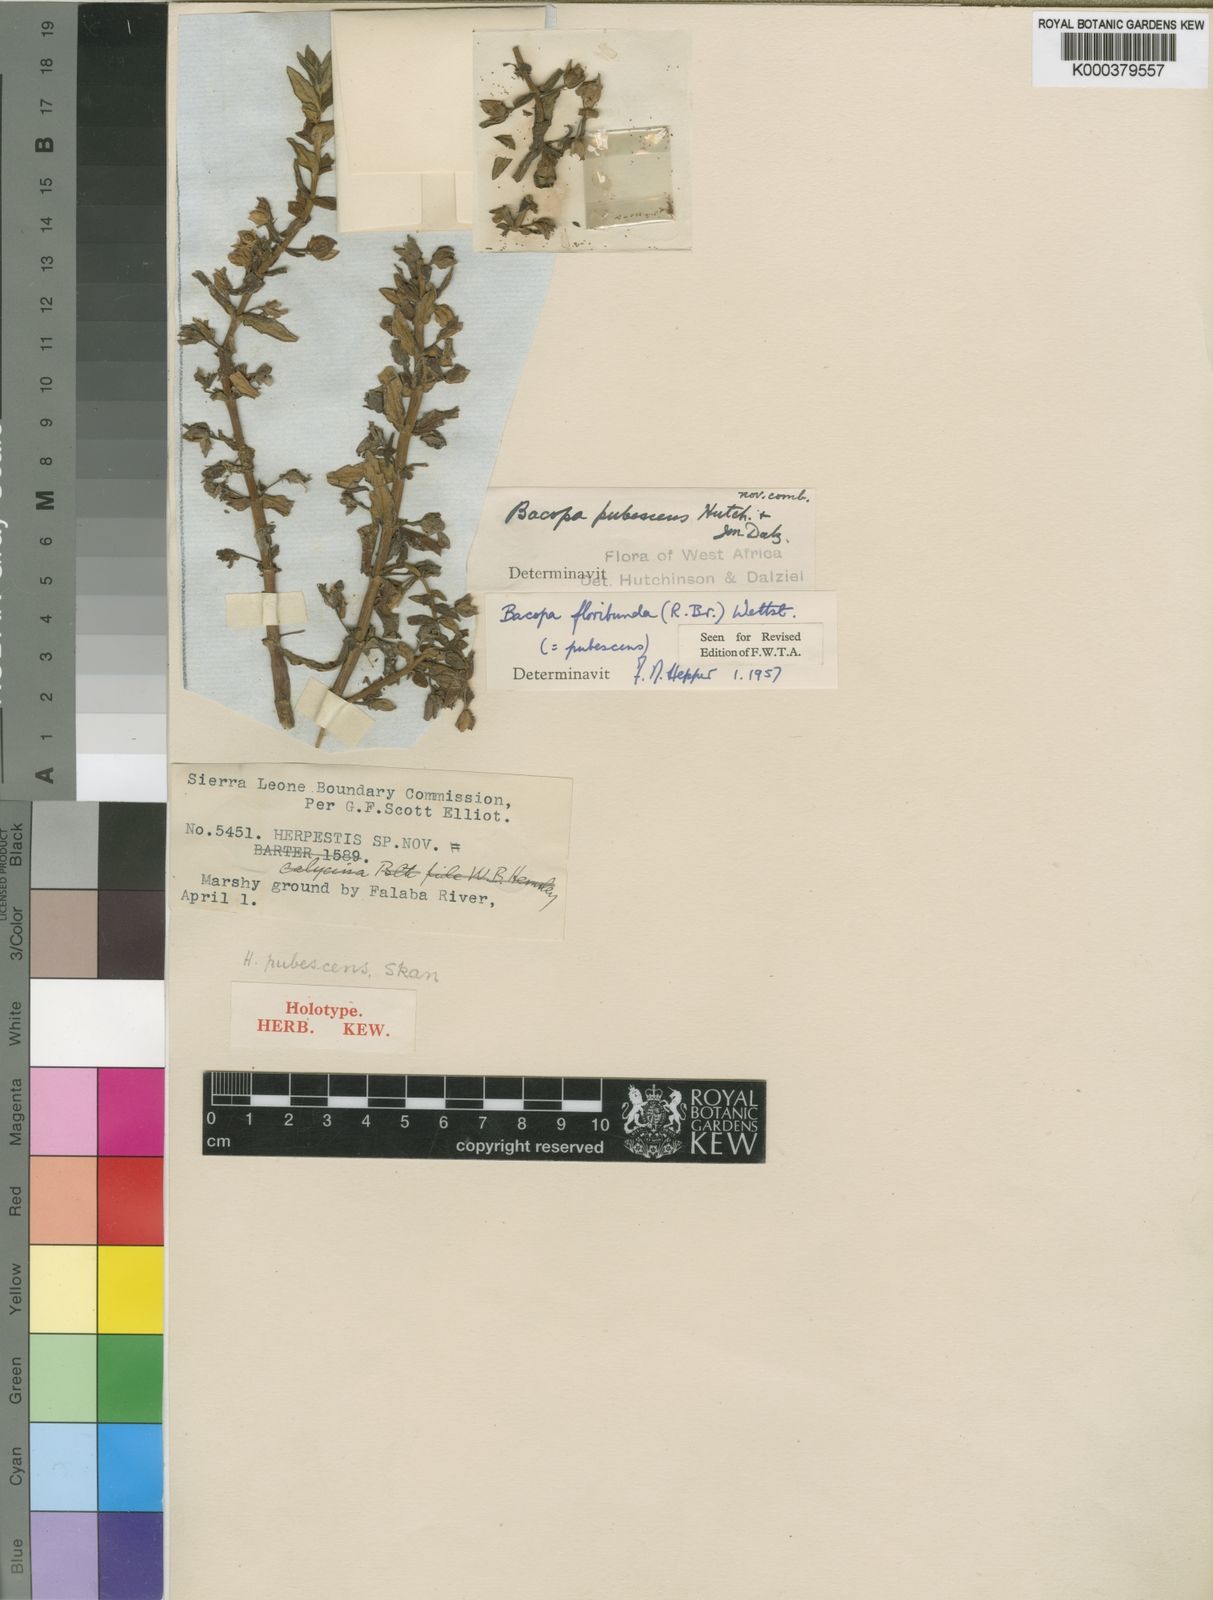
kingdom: Plantae
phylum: Tracheophyta
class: Magnoliopsida
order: Lamiales
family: Plantaginaceae
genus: Bacopa
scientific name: Bacopa floribunda
